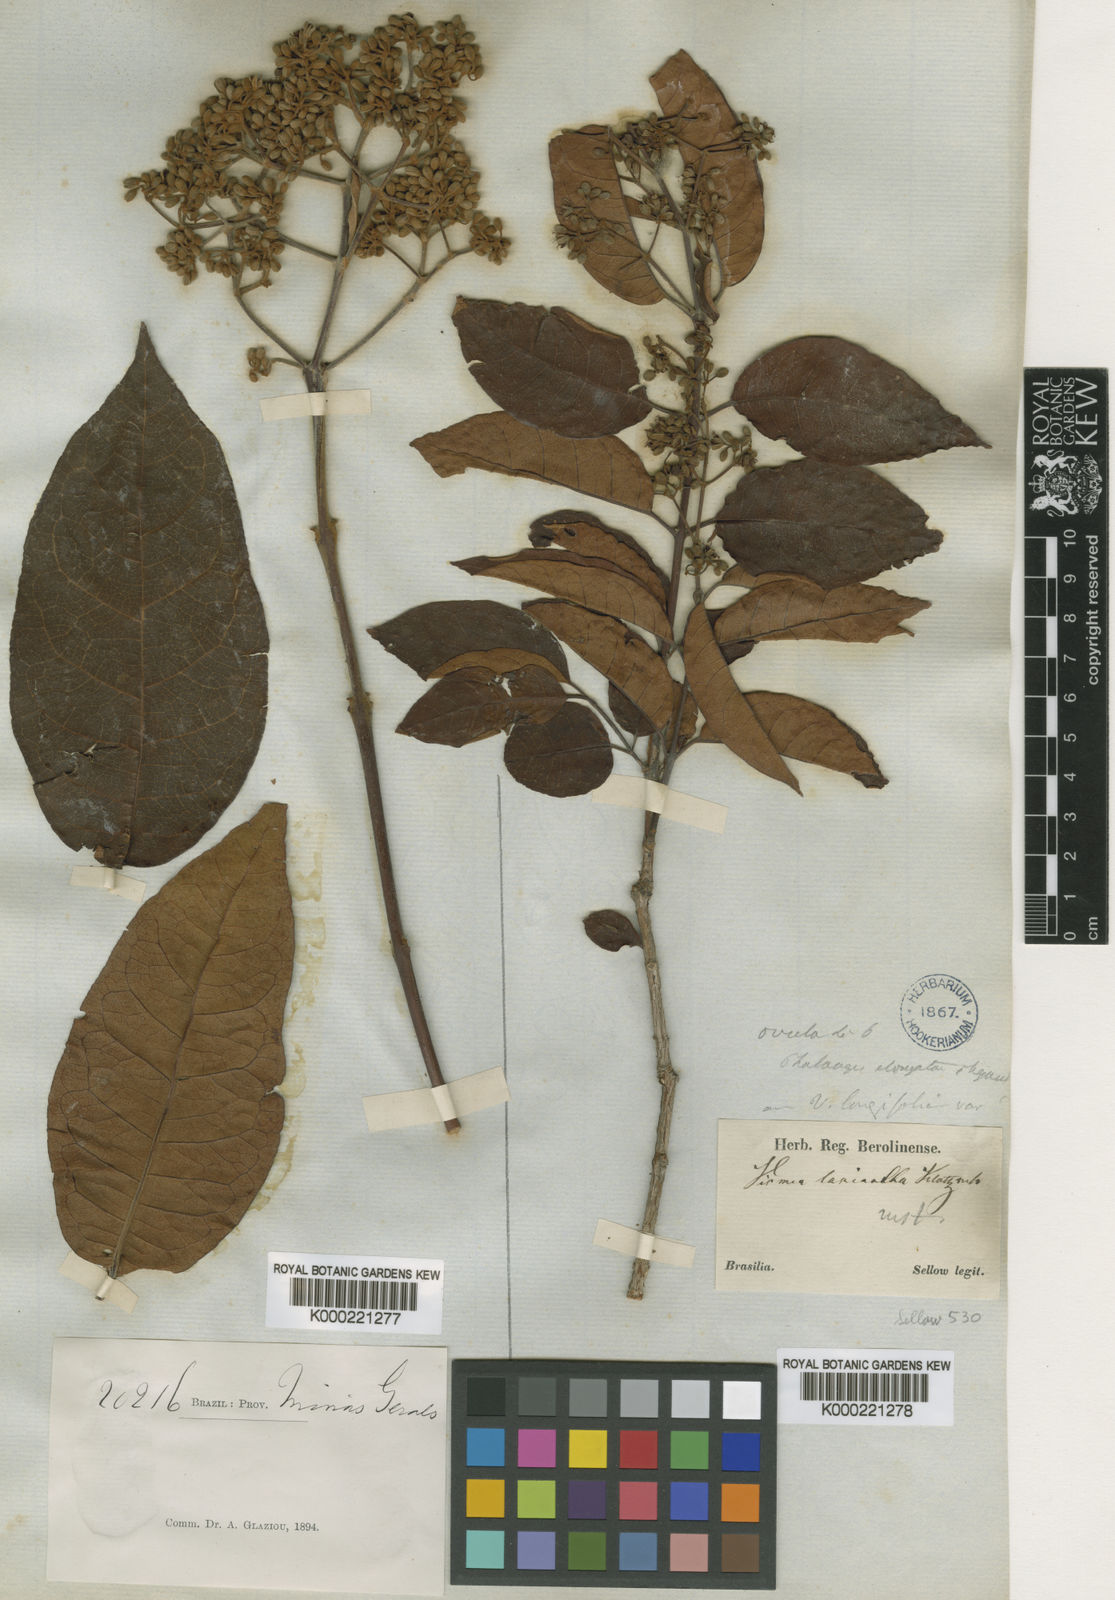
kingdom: Plantae
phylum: Tracheophyta
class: Magnoliopsida
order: Malpighiales
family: Hypericaceae
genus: Vismia
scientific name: Vismia brasiliensis
